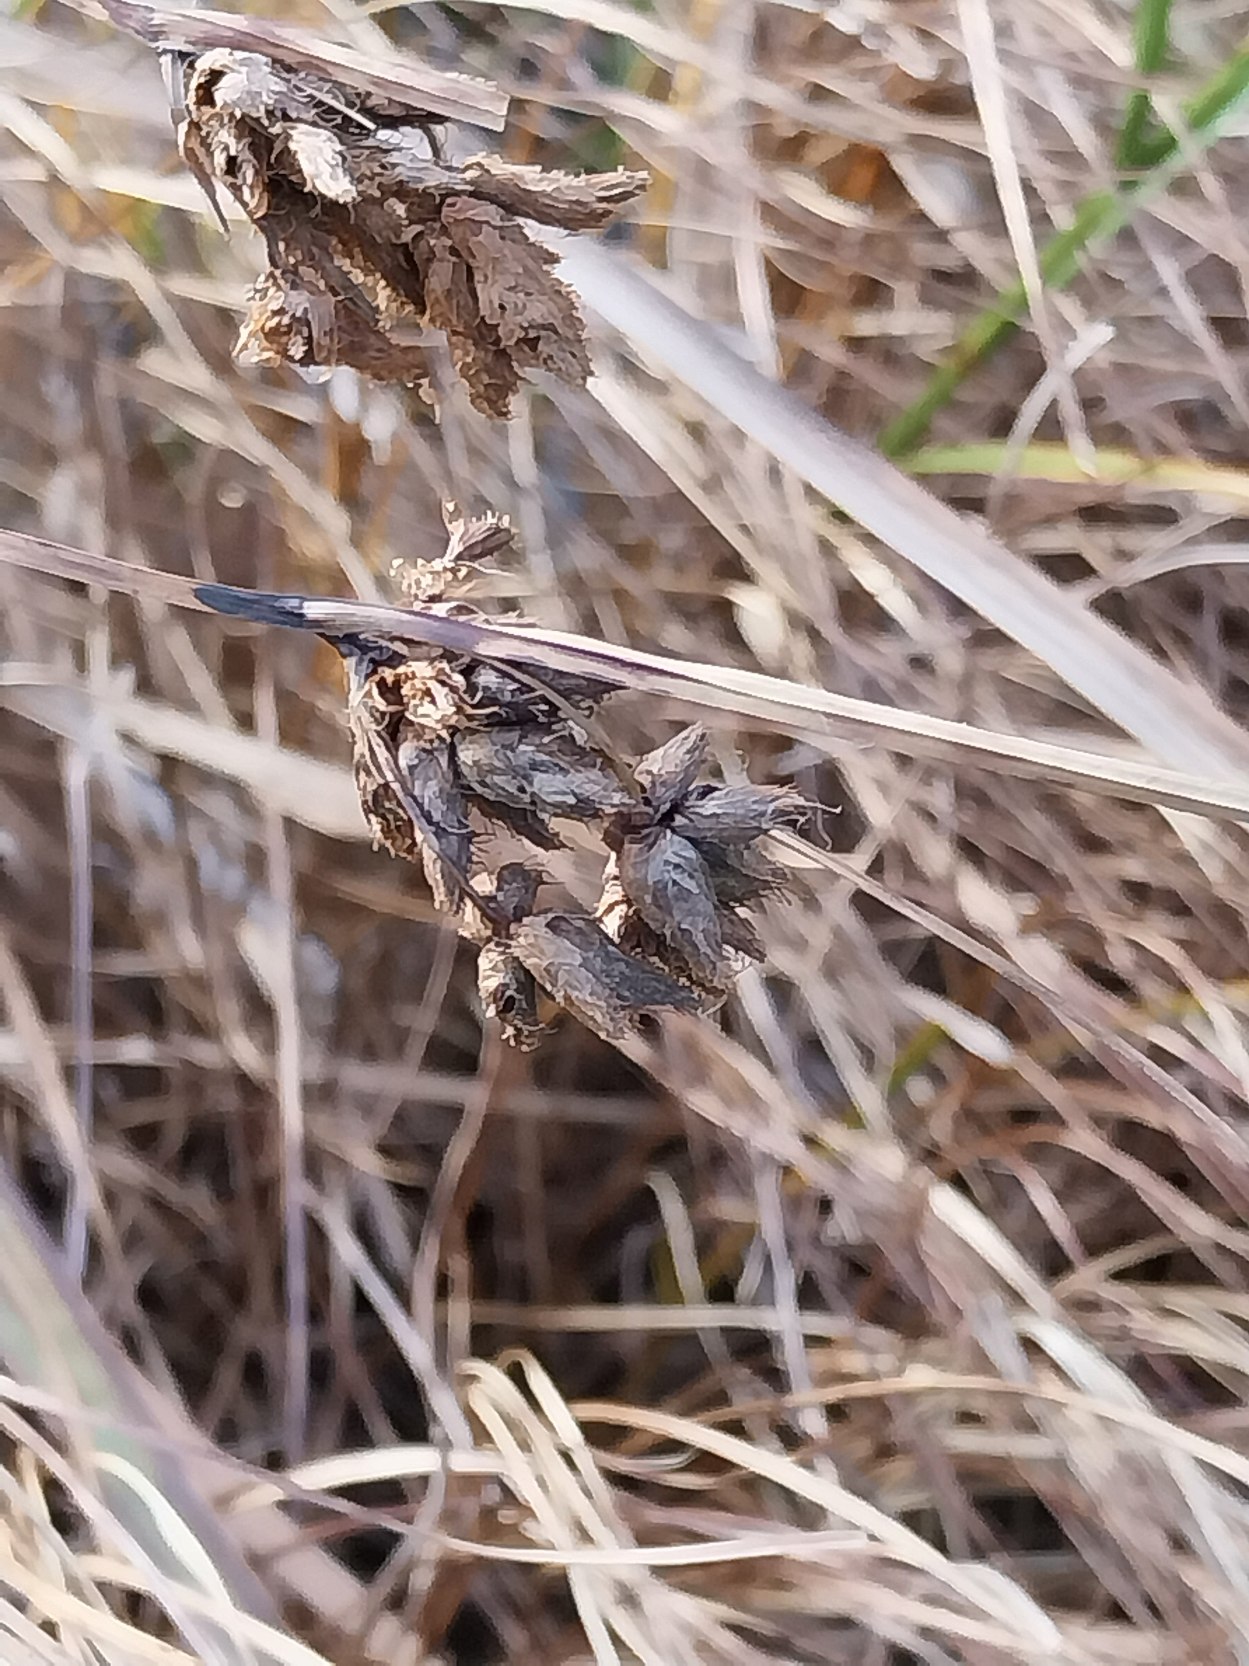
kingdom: Plantae
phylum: Tracheophyta
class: Liliopsida
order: Poales
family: Cyperaceae
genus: Bolboschoenus
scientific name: Bolboschoenus maritimus
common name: Strand-kogleaks
